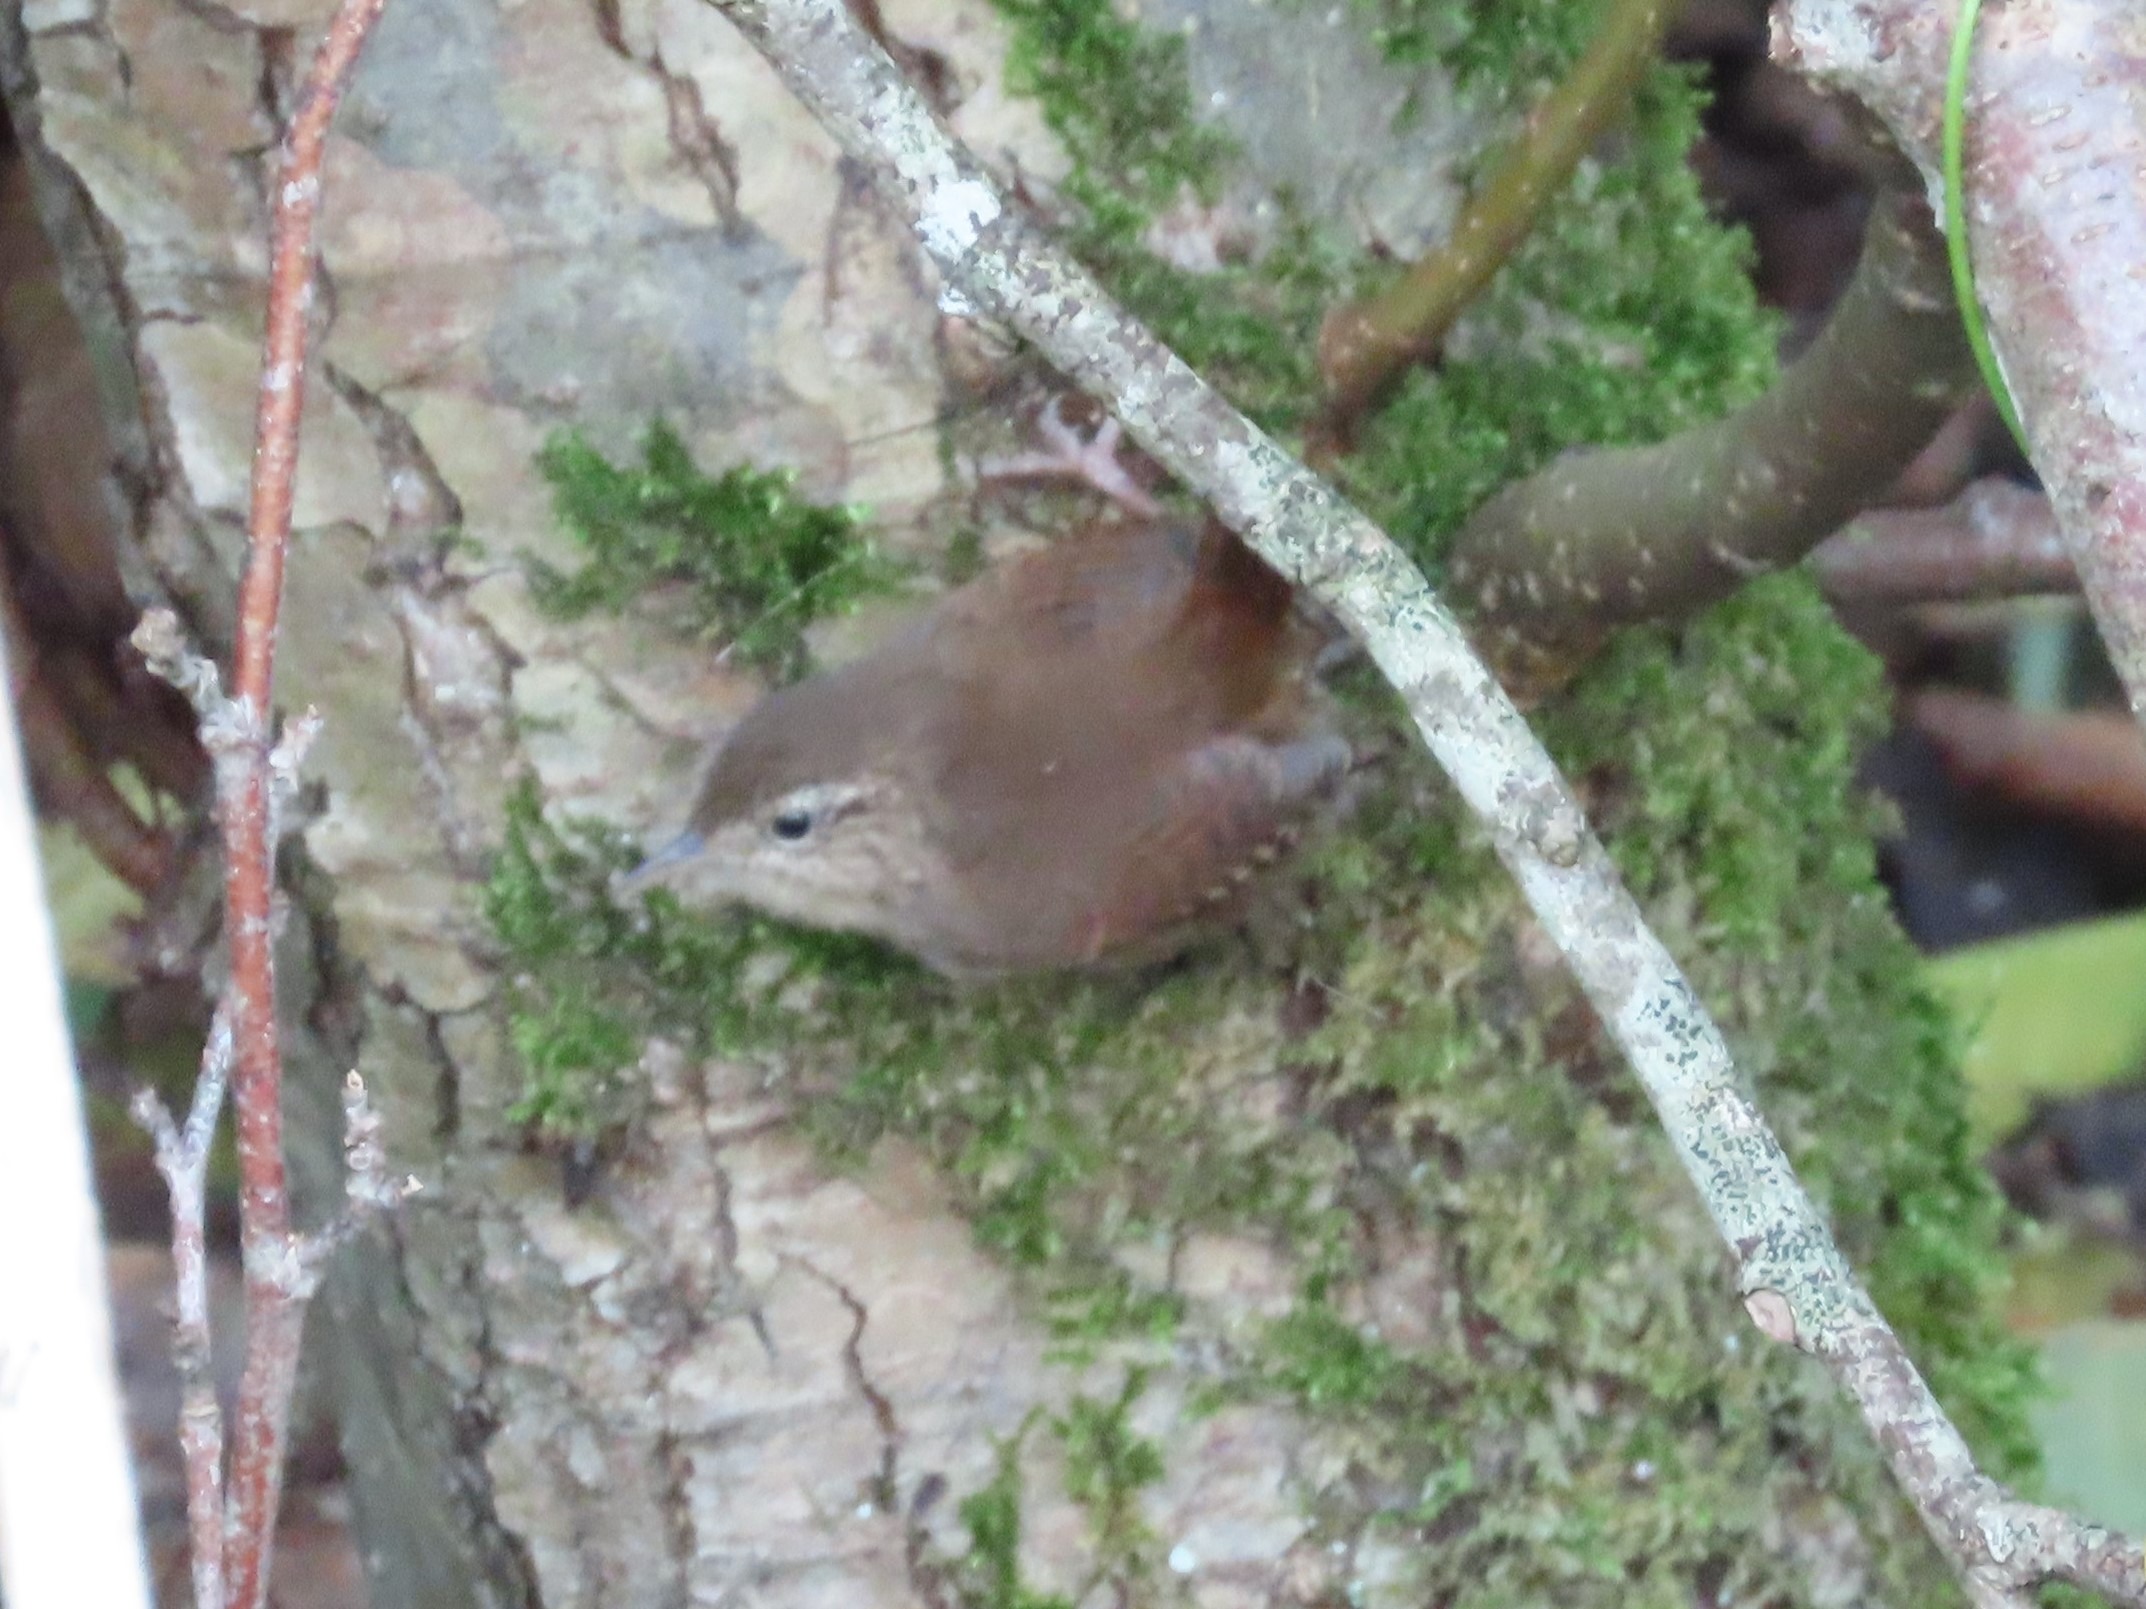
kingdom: Animalia
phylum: Chordata
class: Aves
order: Passeriformes
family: Troglodytidae
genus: Troglodytes
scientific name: Troglodytes troglodytes
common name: Gærdesmutte
